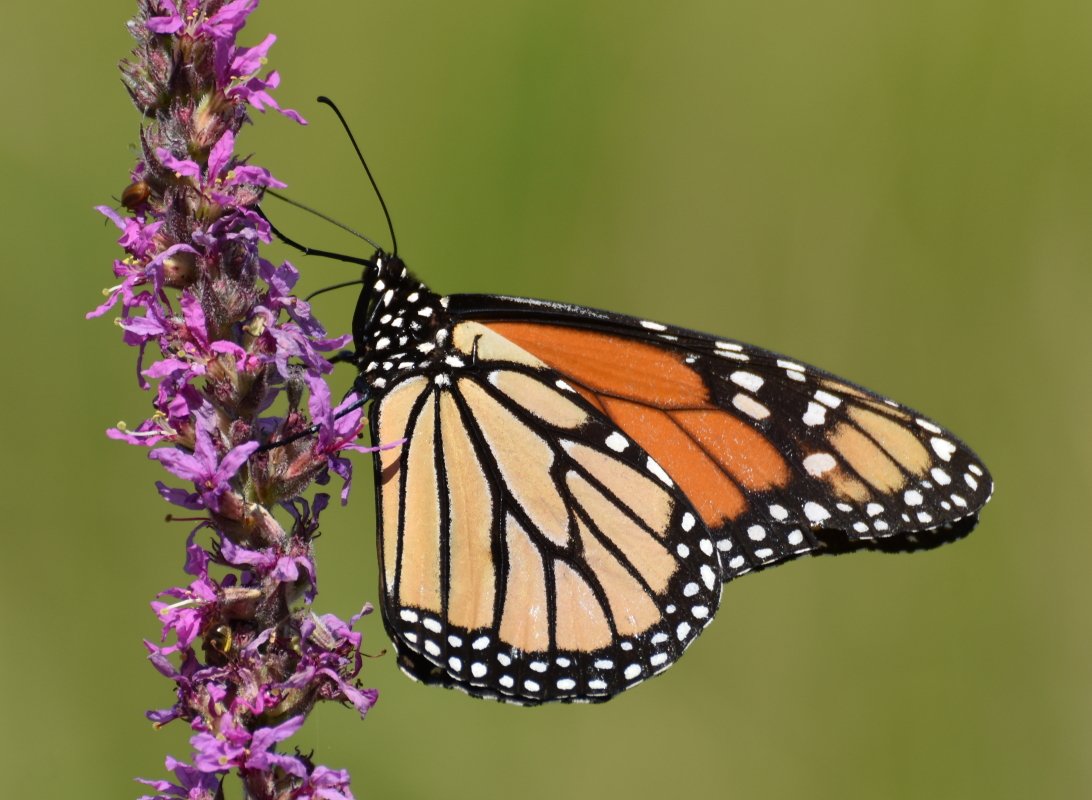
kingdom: Animalia
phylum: Arthropoda
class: Insecta
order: Lepidoptera
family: Nymphalidae
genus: Danaus
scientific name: Danaus plexippus
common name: Monarch
